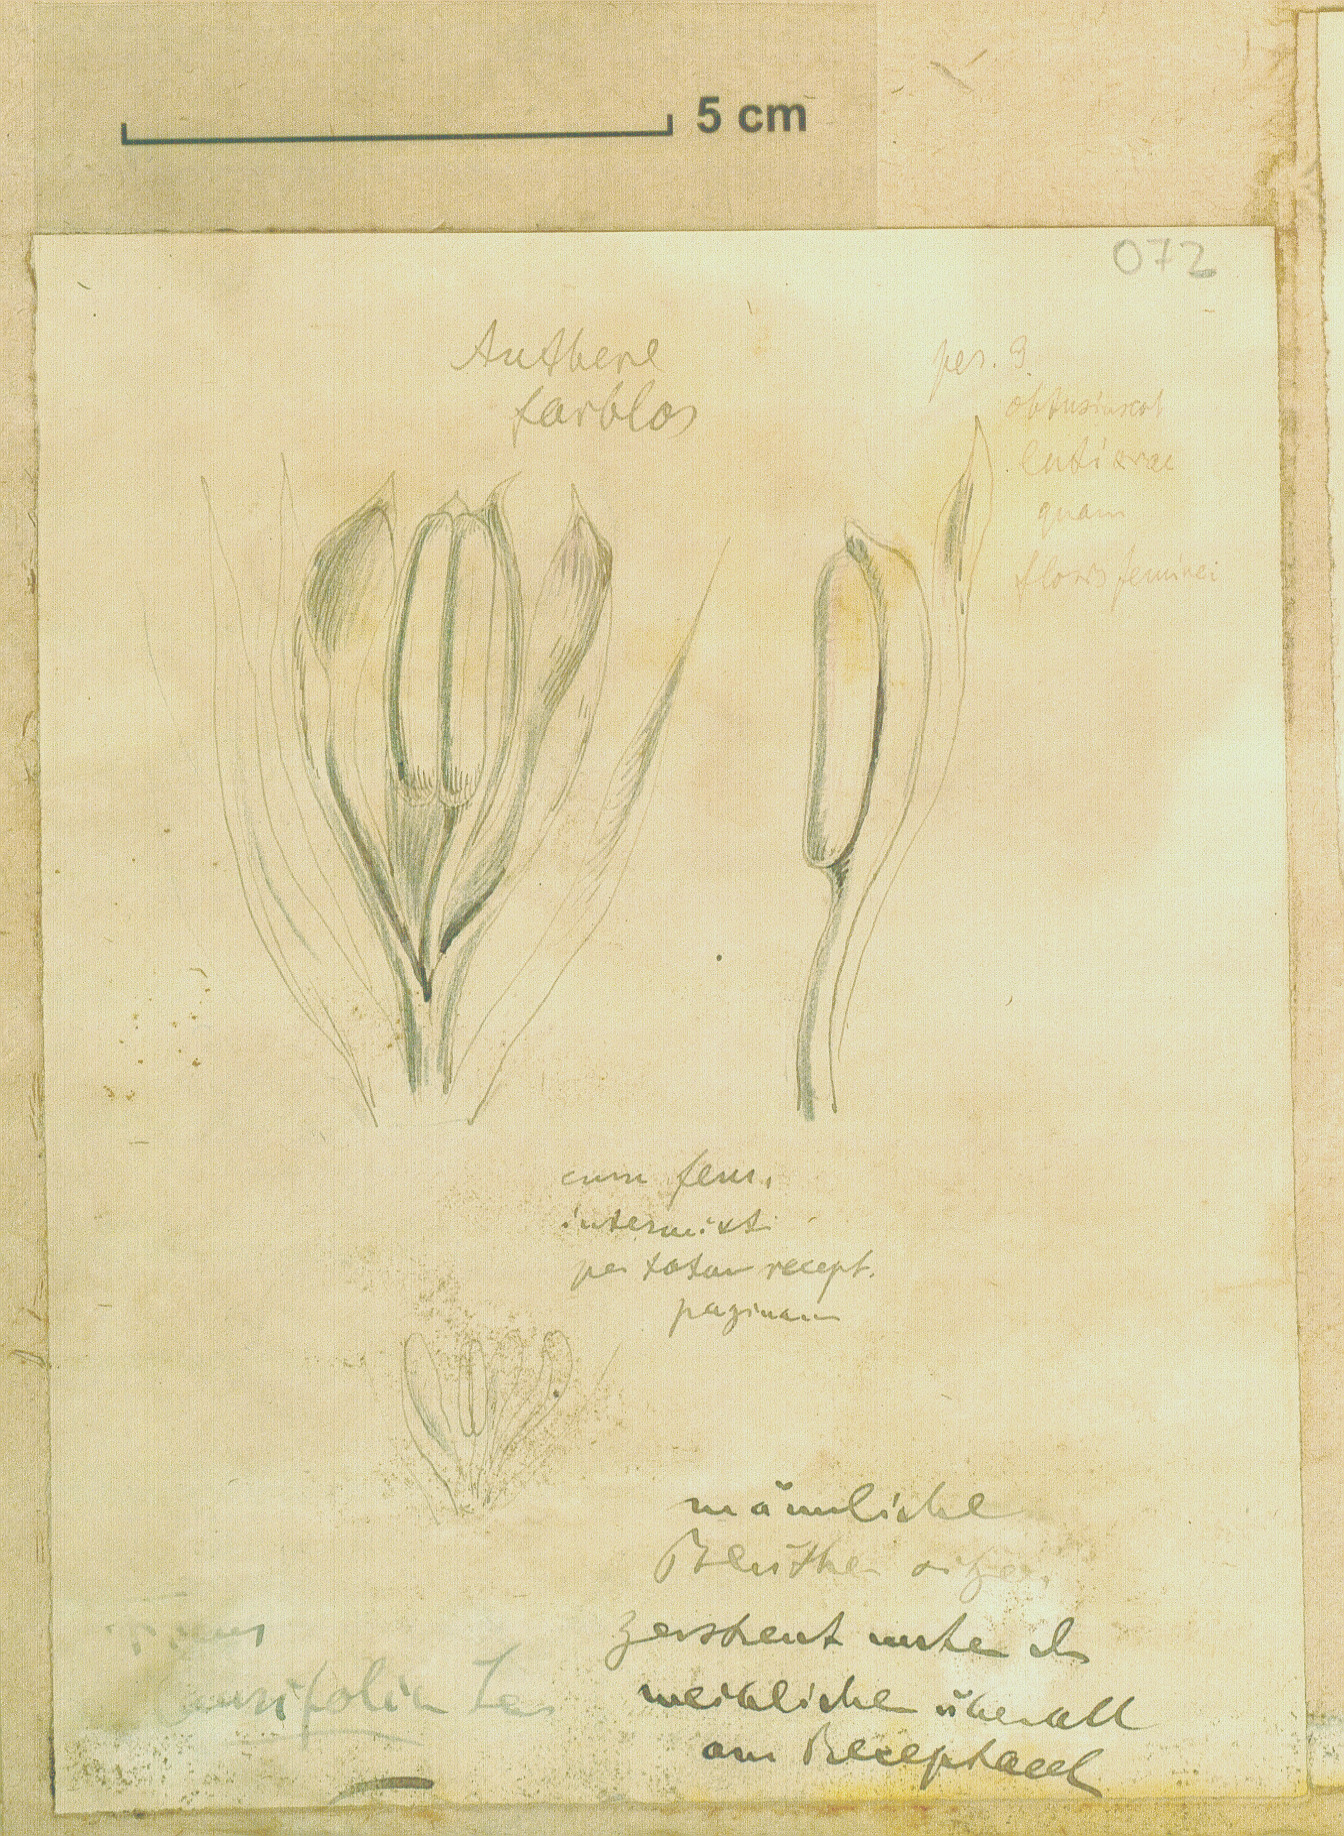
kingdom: Plantae
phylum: Tracheophyta
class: Magnoliopsida
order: Rosales
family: Moraceae
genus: Ficus
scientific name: Ficus maxima
